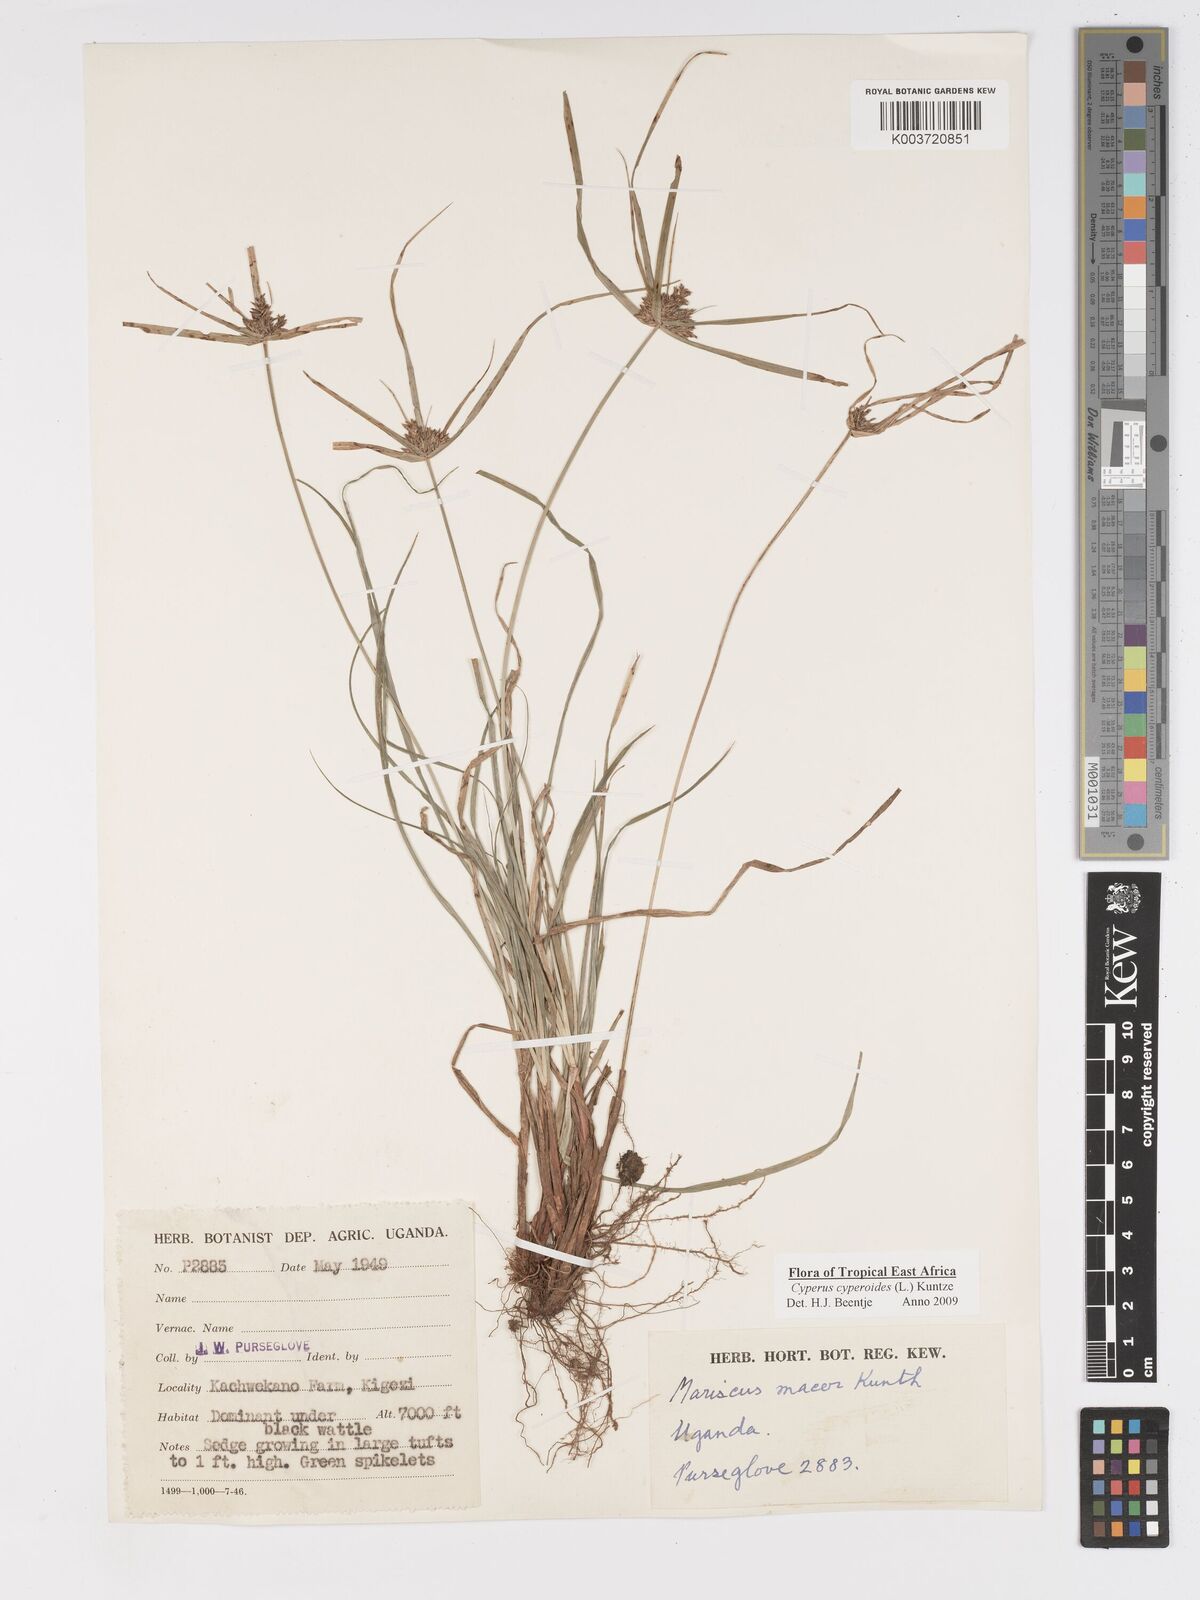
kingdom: Plantae
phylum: Tracheophyta
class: Liliopsida
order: Poales
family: Cyperaceae
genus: Cyperus
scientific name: Cyperus pseudoflavus
